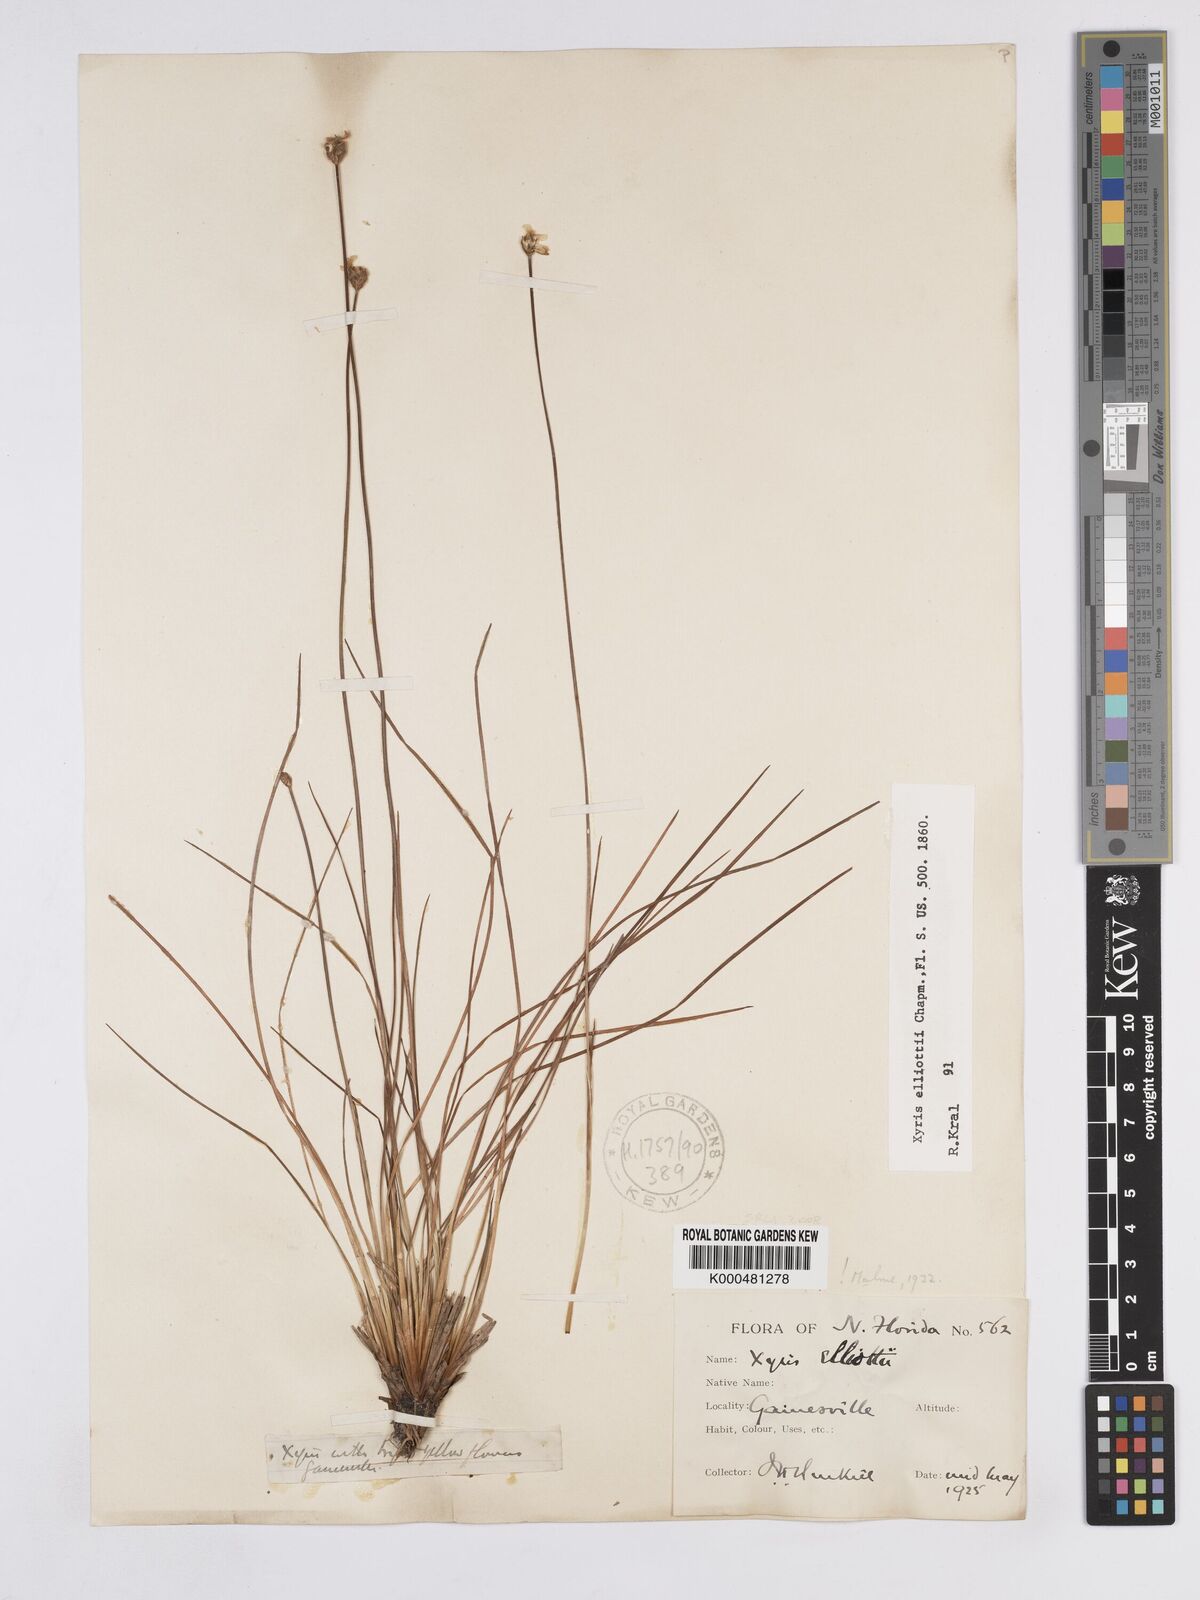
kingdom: Plantae
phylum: Tracheophyta
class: Liliopsida
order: Poales
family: Xyridaceae
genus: Xyris
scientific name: Xyris elliottii
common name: Elliot's yelloweyed grass
